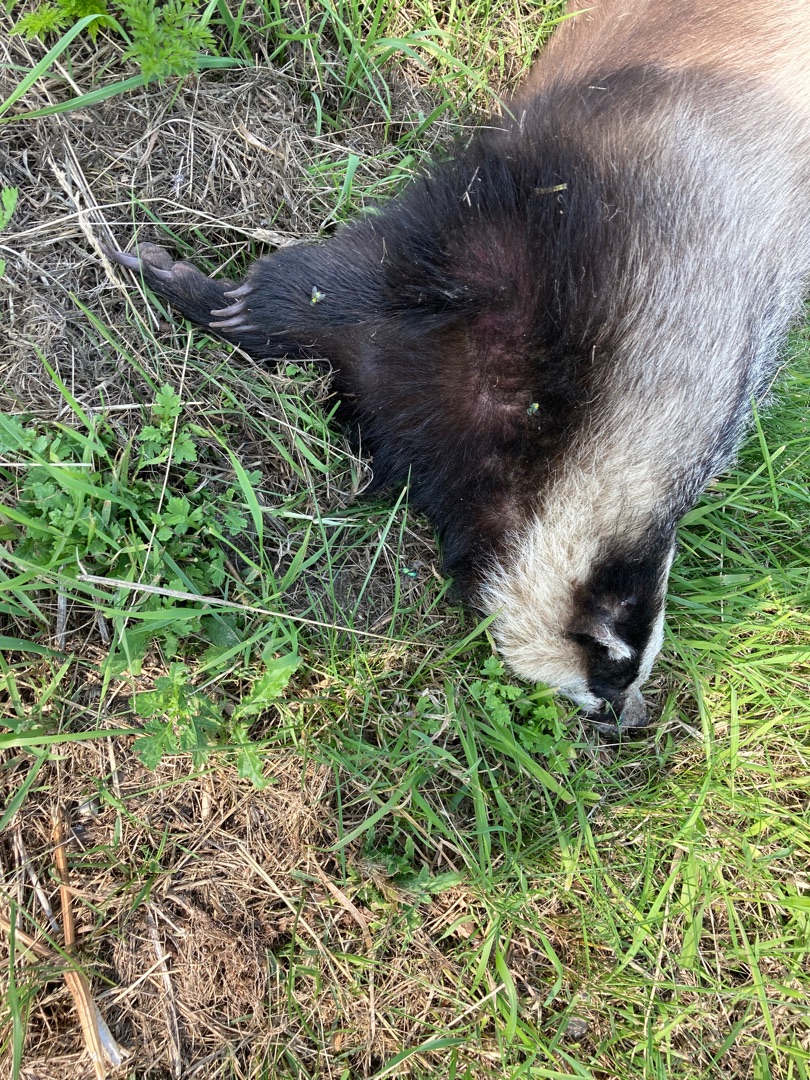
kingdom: Animalia
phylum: Chordata
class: Mammalia
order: Carnivora
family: Mustelidae
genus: Meles
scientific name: Meles meles
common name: Grævling
